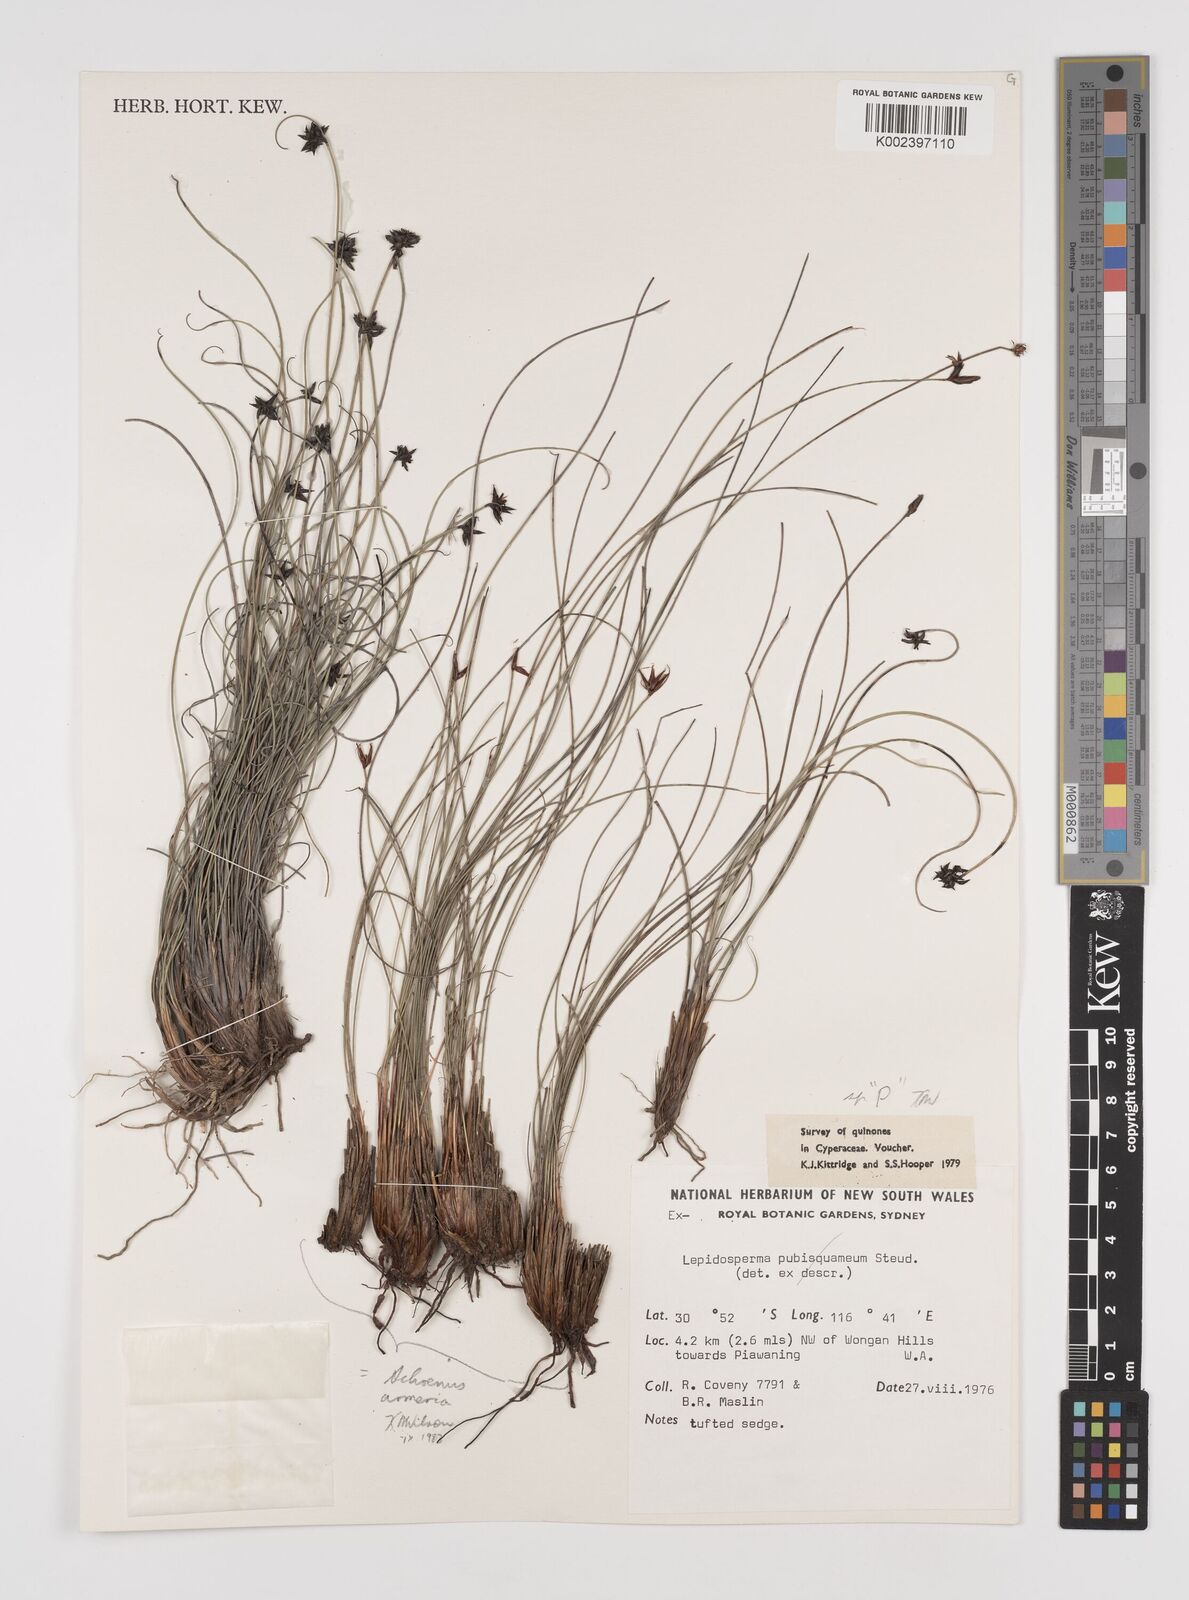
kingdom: Plantae
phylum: Tracheophyta
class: Liliopsida
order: Poales
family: Cyperaceae
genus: Lepidosperma
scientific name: Lepidosperma tenue
